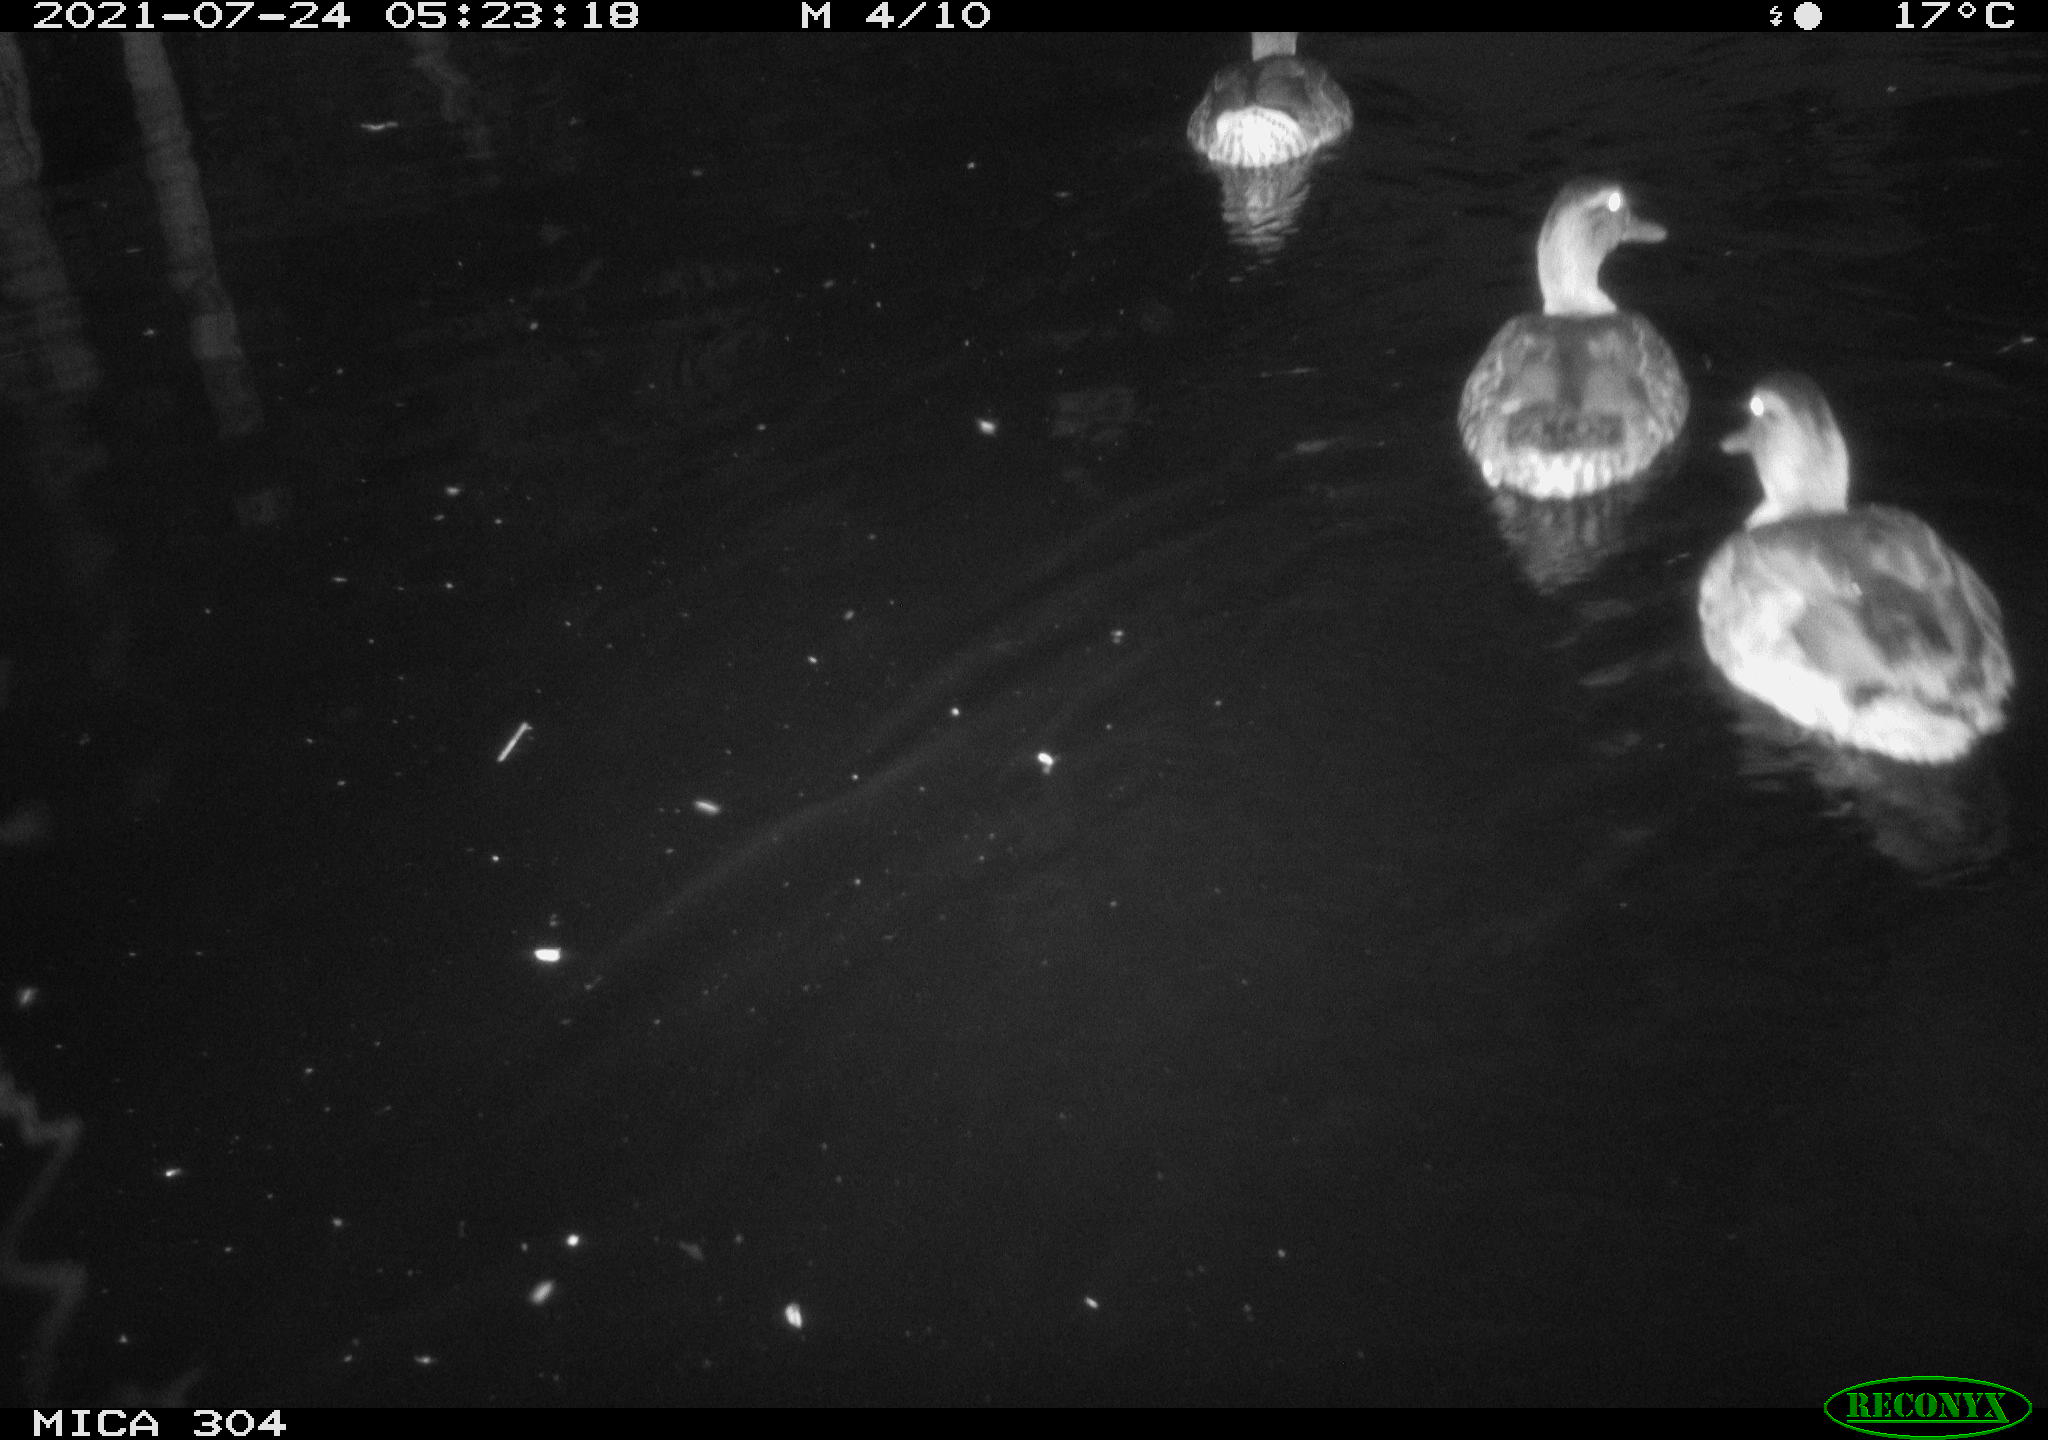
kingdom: Animalia
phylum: Chordata
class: Aves
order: Anseriformes
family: Anatidae
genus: Anas
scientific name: Anas platyrhynchos
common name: Mallard
